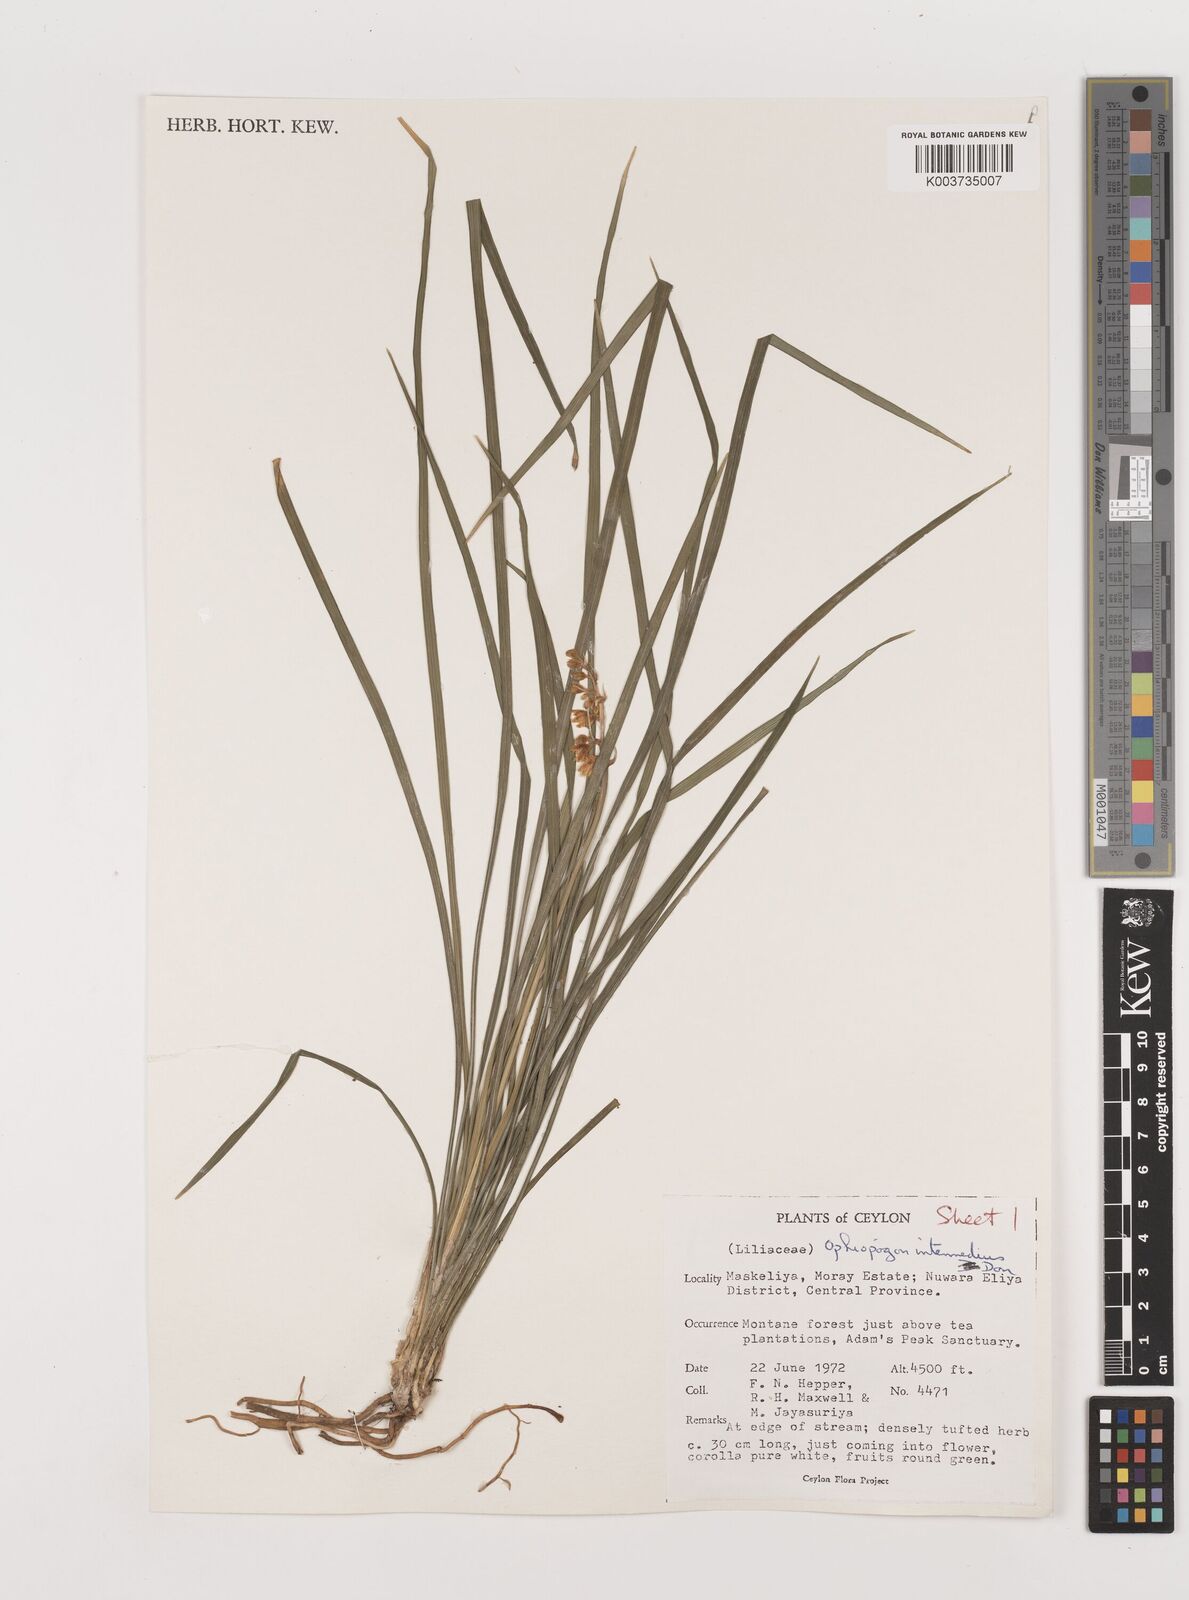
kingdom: Plantae
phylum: Tracheophyta
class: Liliopsida
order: Asparagales
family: Asparagaceae
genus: Ophiopogon
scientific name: Ophiopogon intermedius
